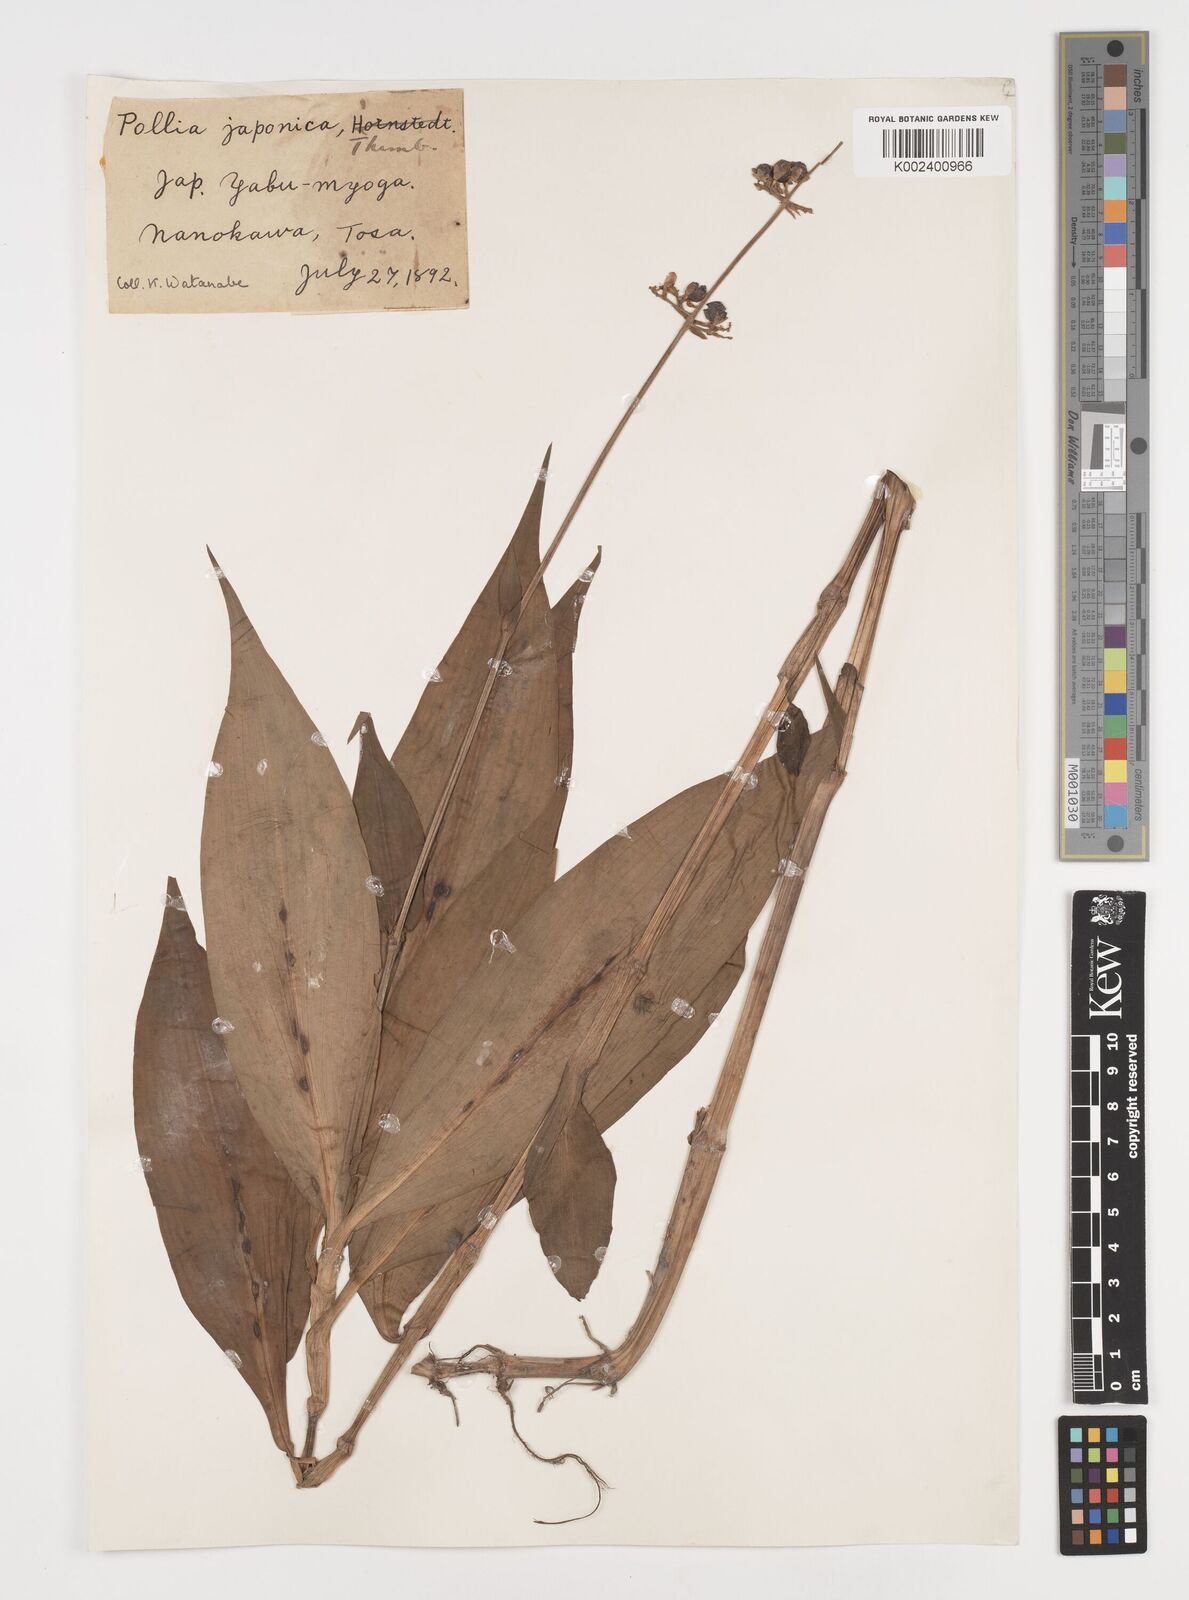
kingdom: Plantae
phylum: Tracheophyta
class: Liliopsida
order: Commelinales
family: Commelinaceae
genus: Pollia
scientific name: Pollia japonica
